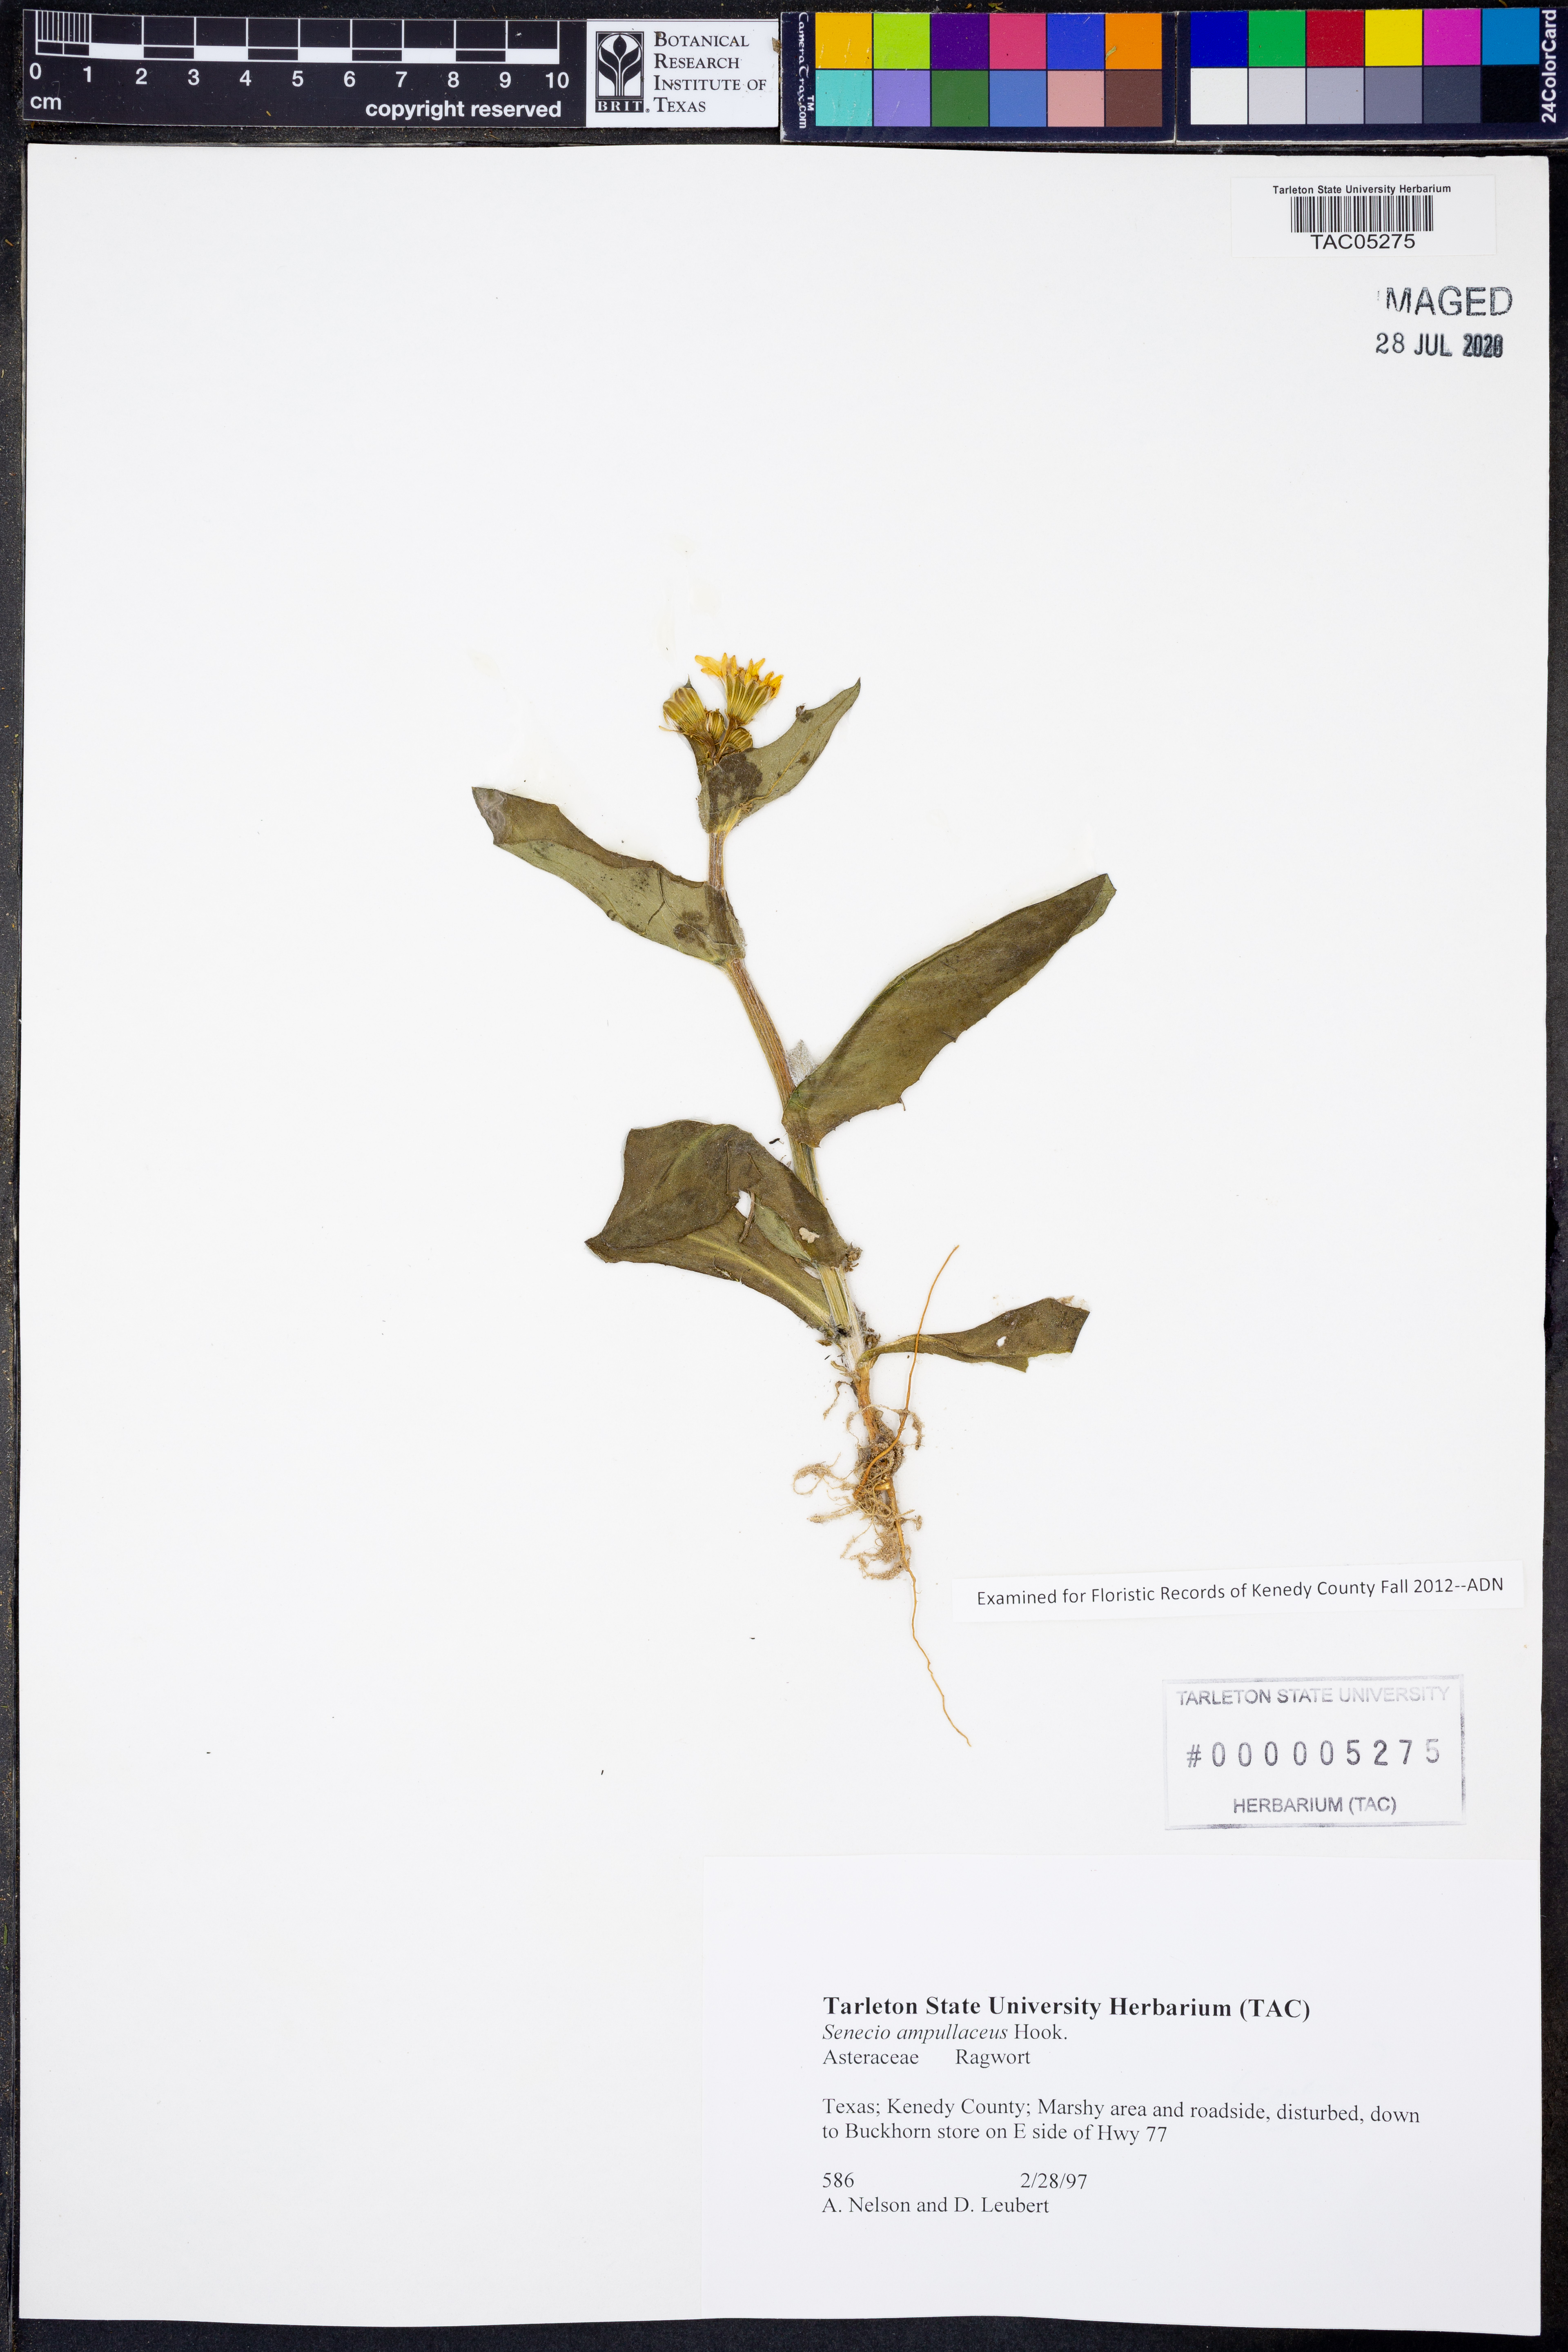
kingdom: Plantae
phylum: Tracheophyta
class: Magnoliopsida
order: Asterales
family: Asteraceae
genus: Senecio
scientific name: Senecio ampullaceus
